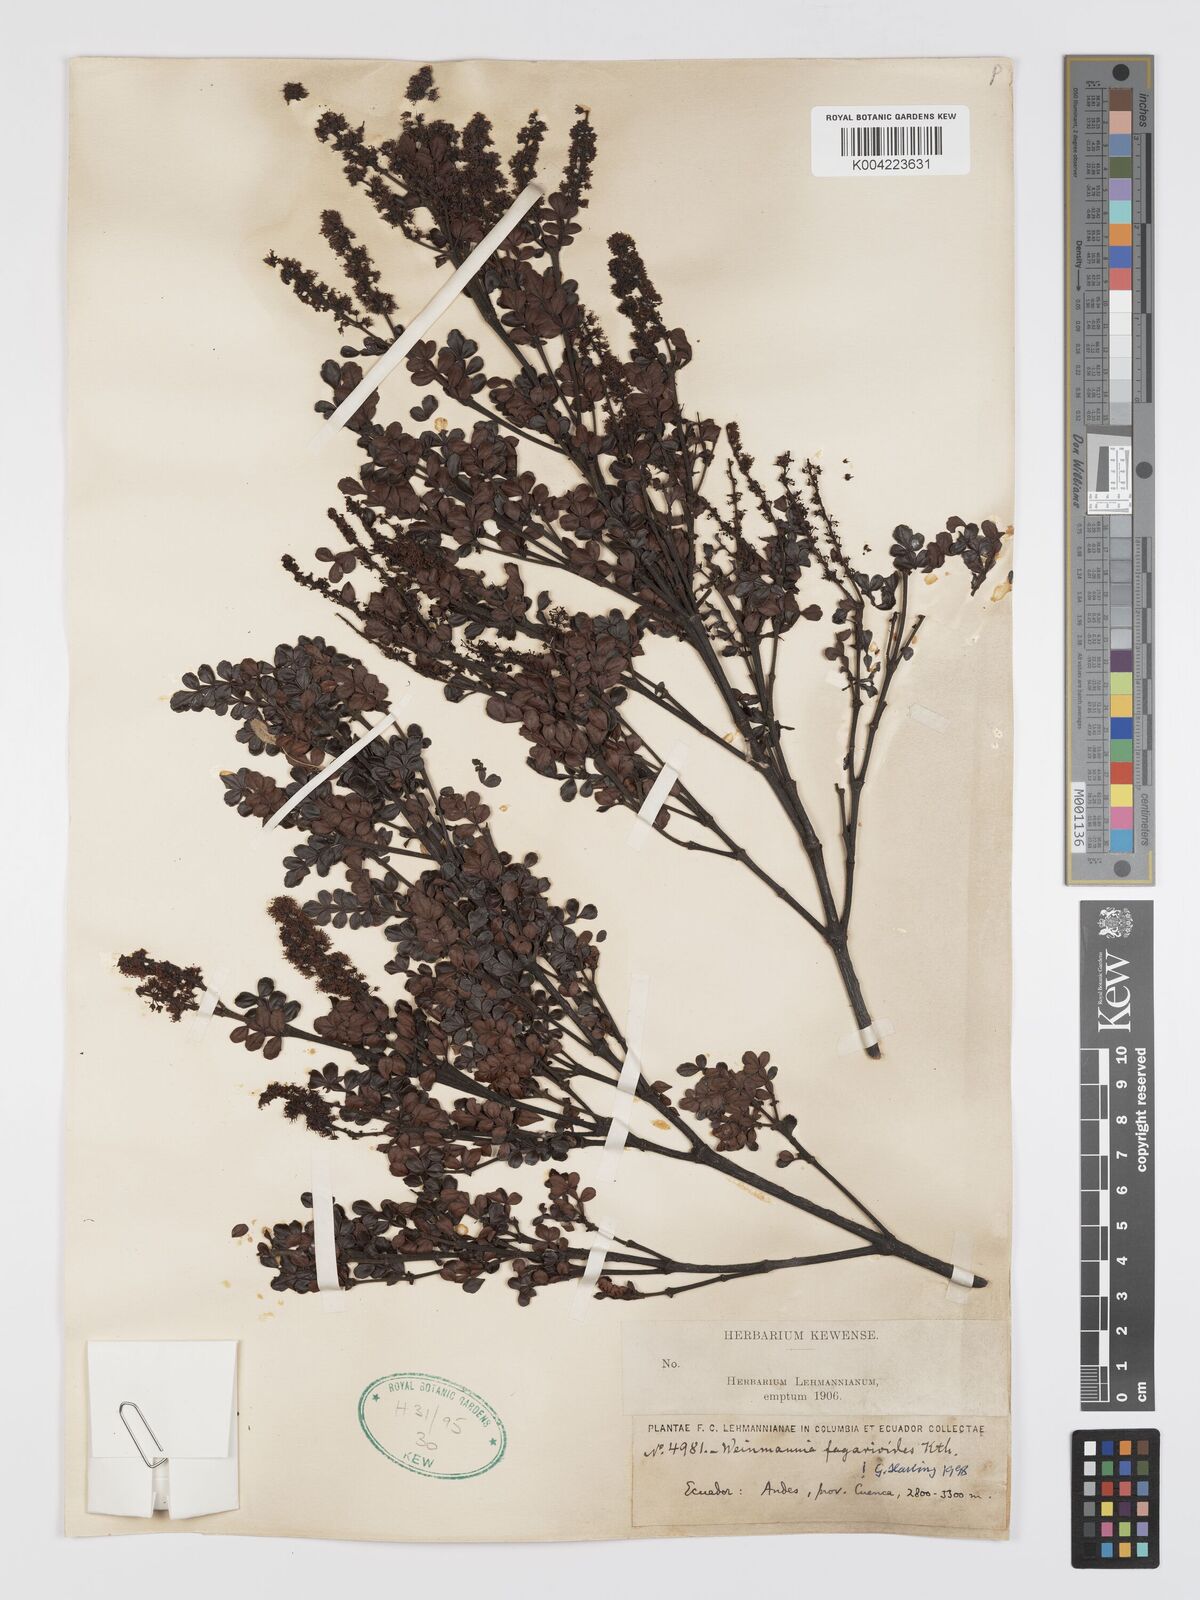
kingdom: Plantae
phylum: Tracheophyta
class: Magnoliopsida
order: Oxalidales
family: Cunoniaceae
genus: Weinmannia
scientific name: Weinmannia fagaroides
